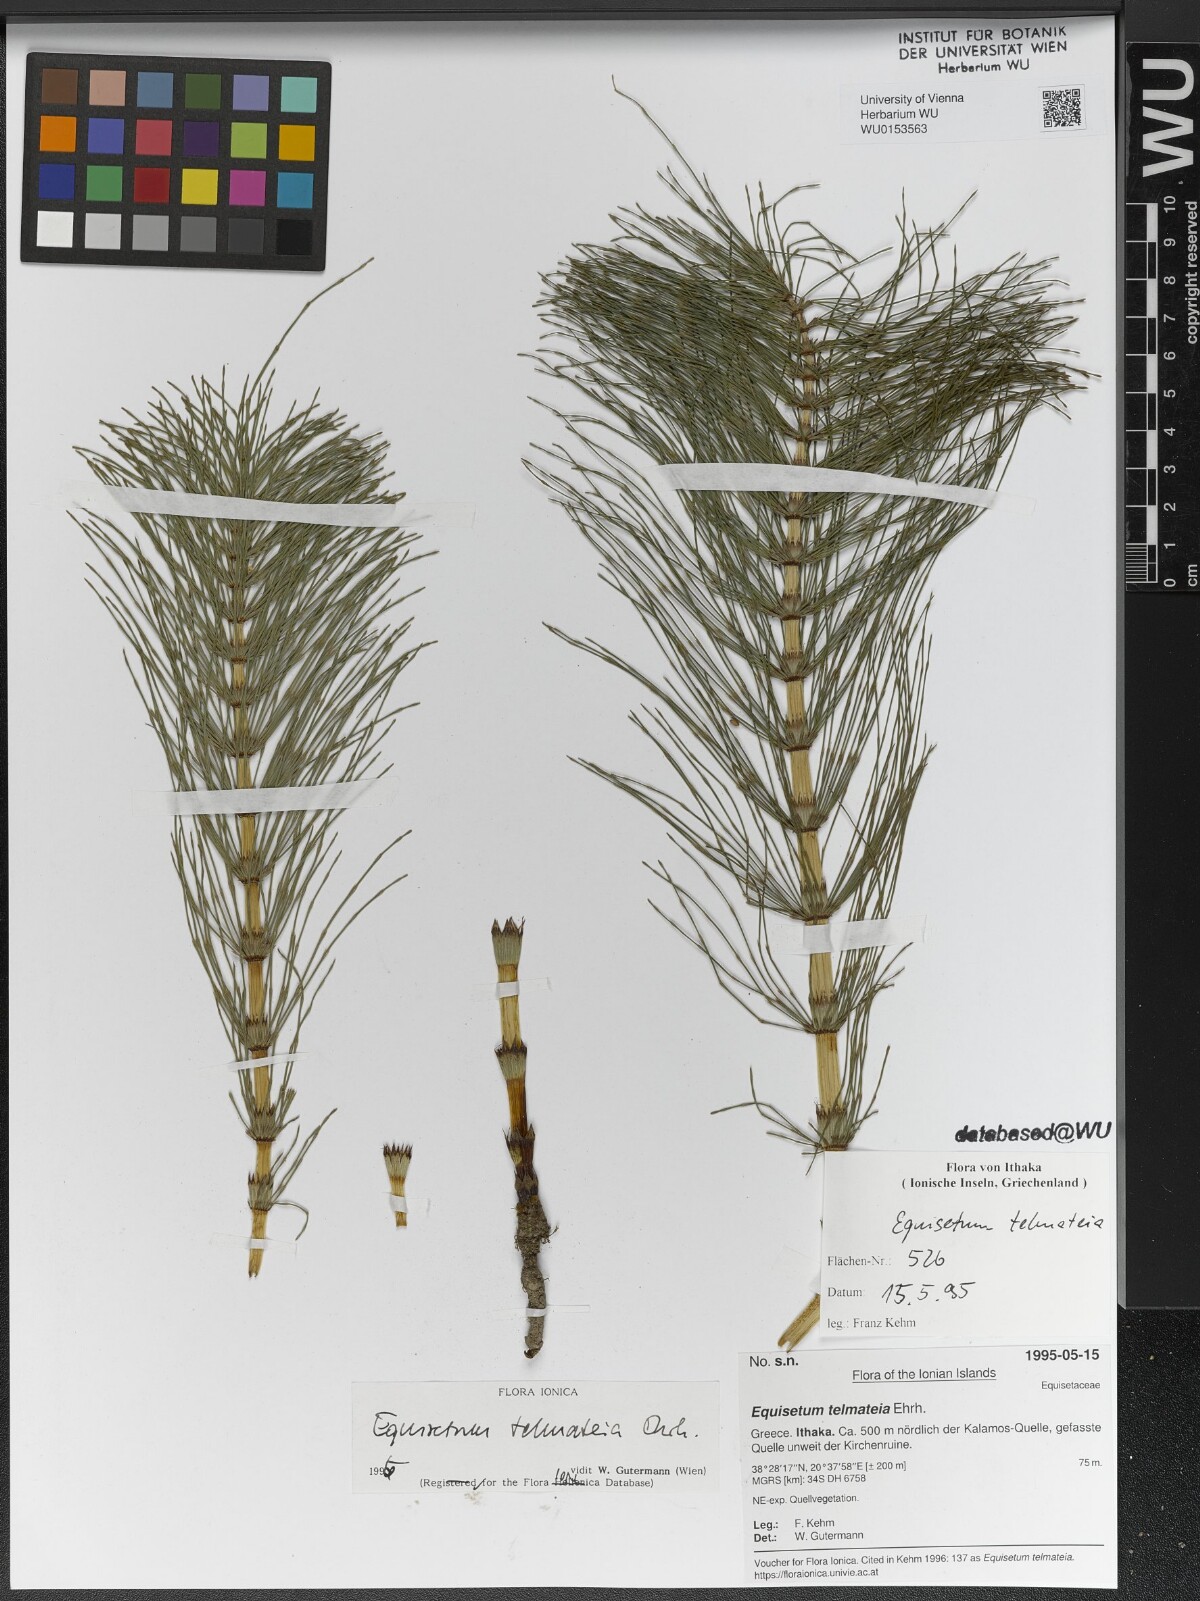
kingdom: Plantae
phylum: Tracheophyta
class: Polypodiopsida
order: Equisetales
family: Equisetaceae
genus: Equisetum
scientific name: Equisetum telmateia
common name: Great horsetail
